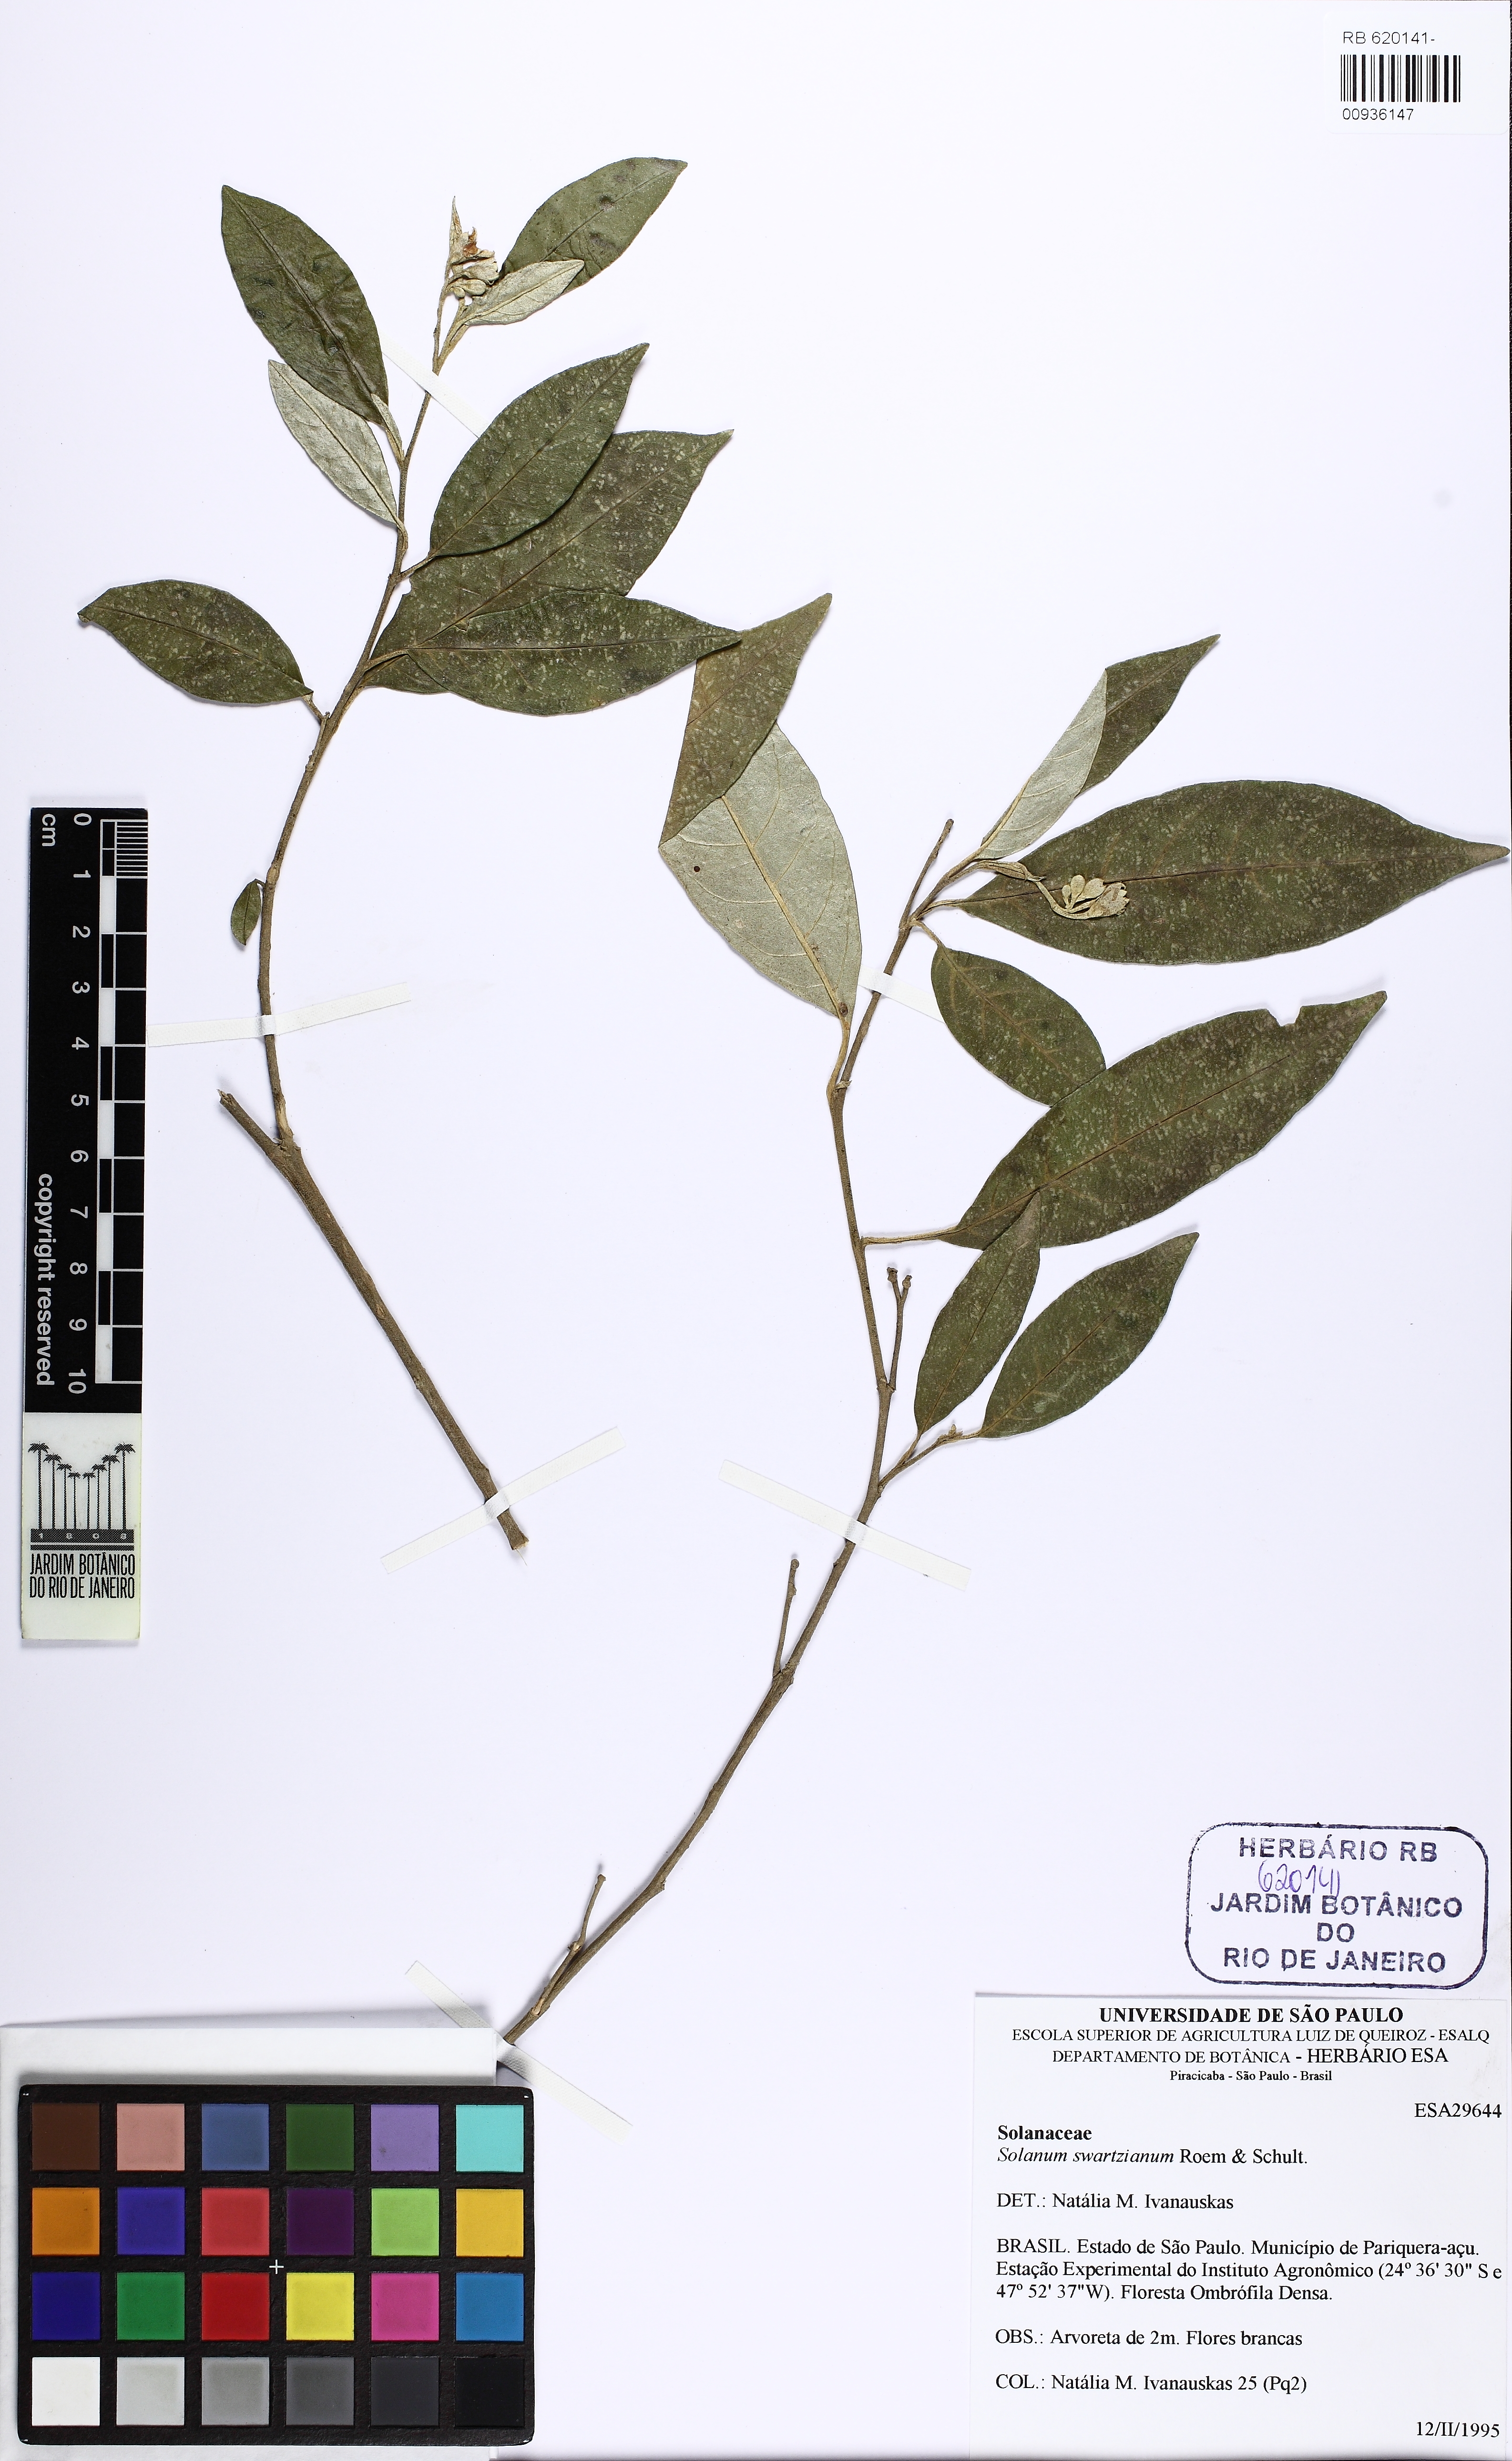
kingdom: Plantae
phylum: Tracheophyta
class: Magnoliopsida
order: Solanales
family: Solanaceae
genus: Solanum
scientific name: Solanum swartzianum
